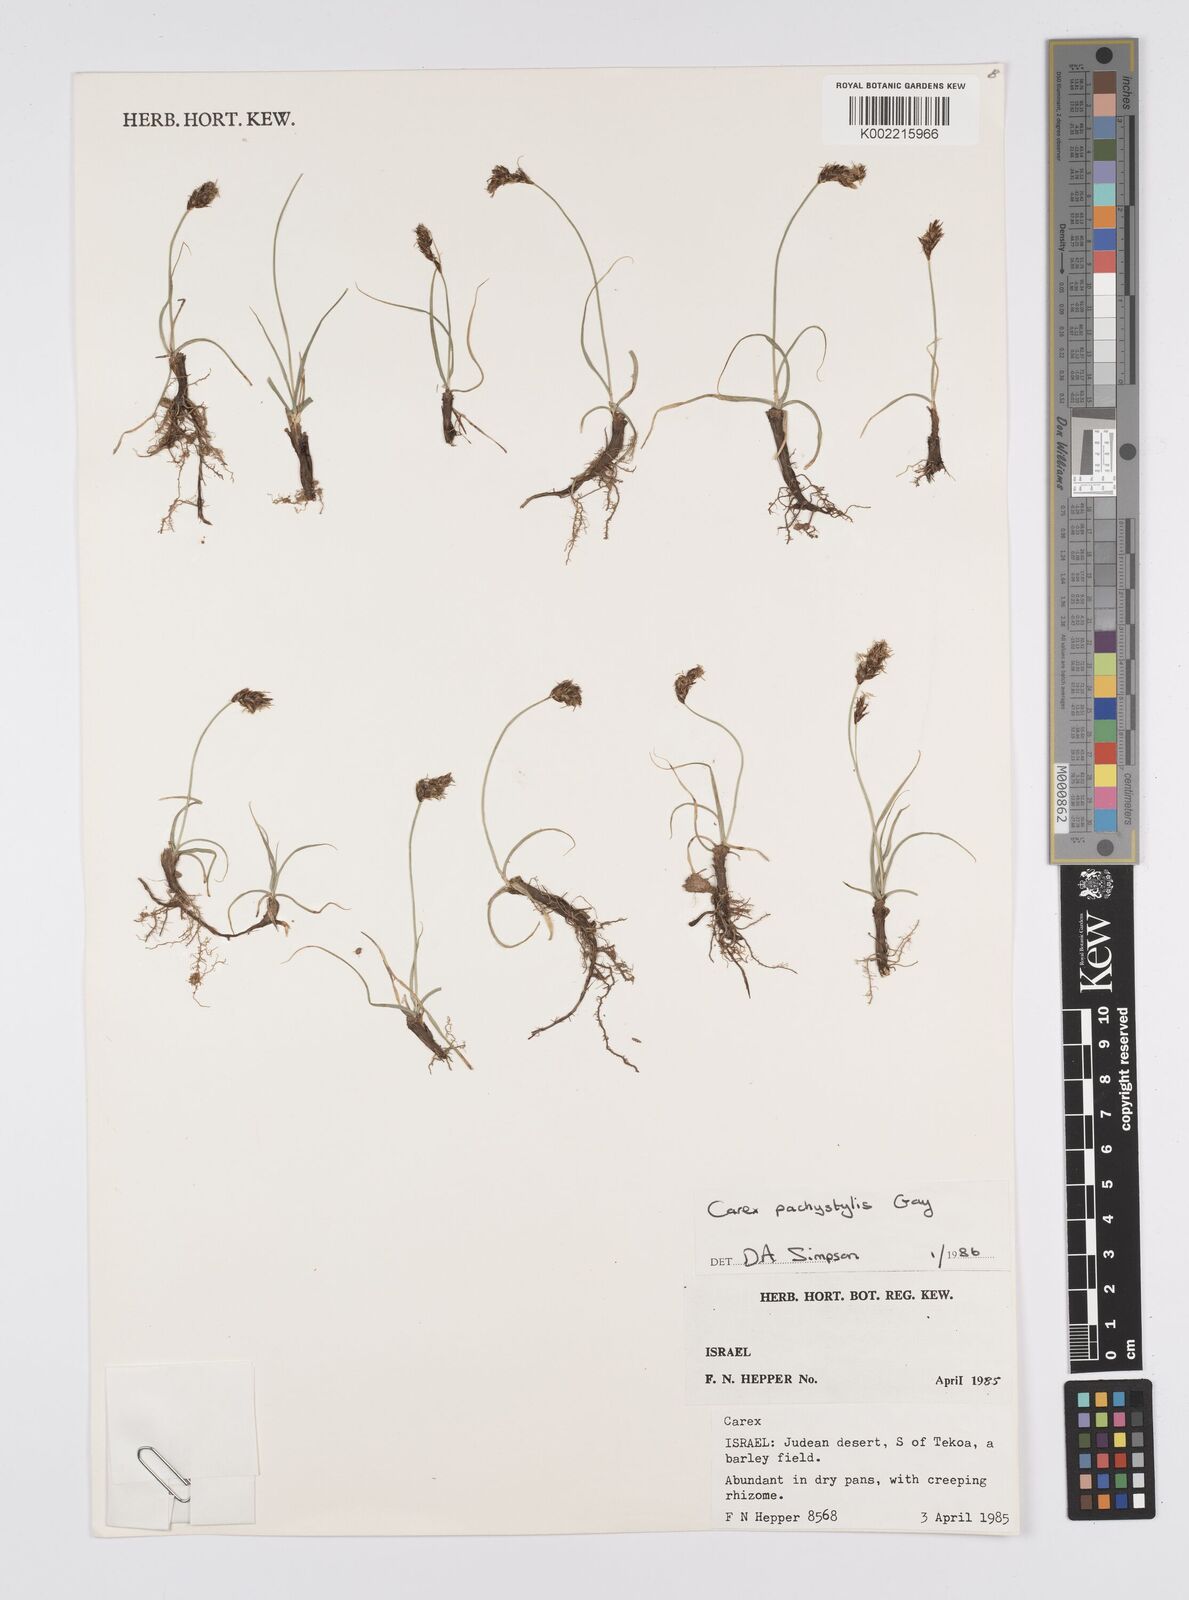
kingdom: Plantae
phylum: Tracheophyta
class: Liliopsida
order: Poales
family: Cyperaceae
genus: Carex
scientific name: Carex pachystylis
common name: Thick-stem sedge
